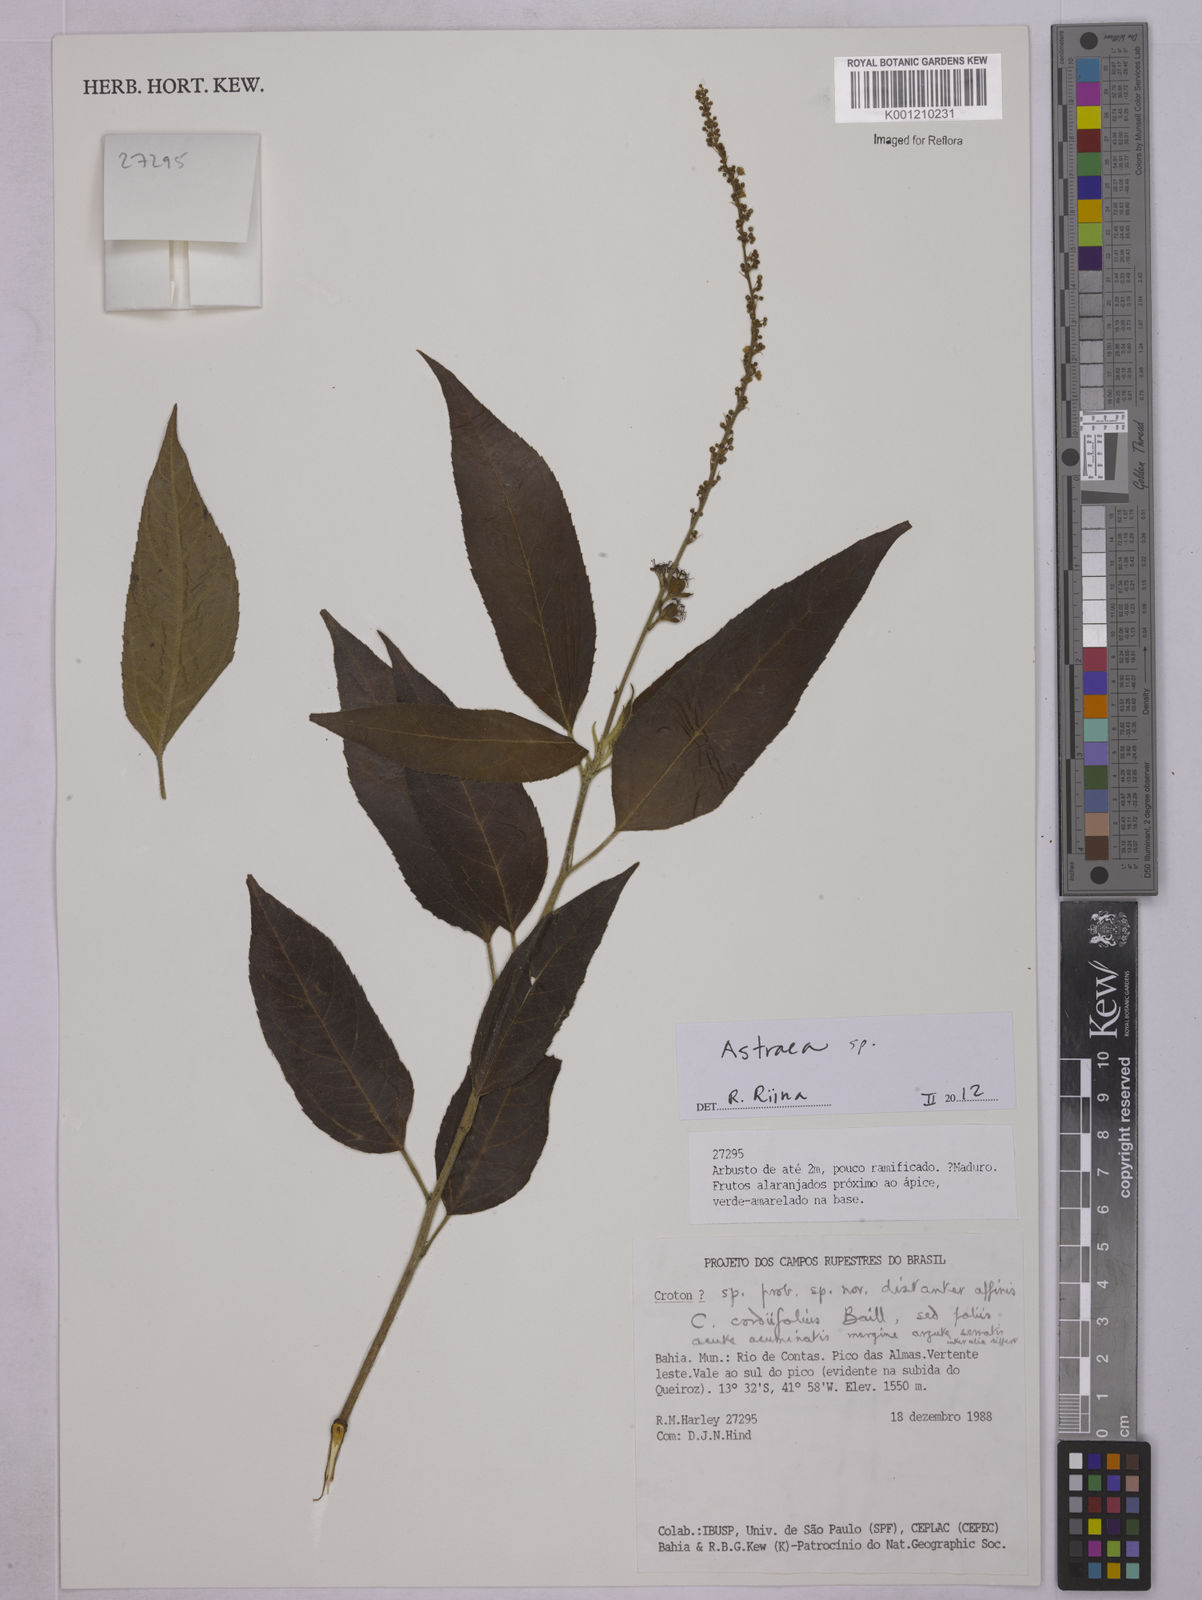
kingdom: Plantae
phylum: Tracheophyta
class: Magnoliopsida
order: Malpighiales
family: Euphorbiaceae
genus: Astraea
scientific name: Astraea
